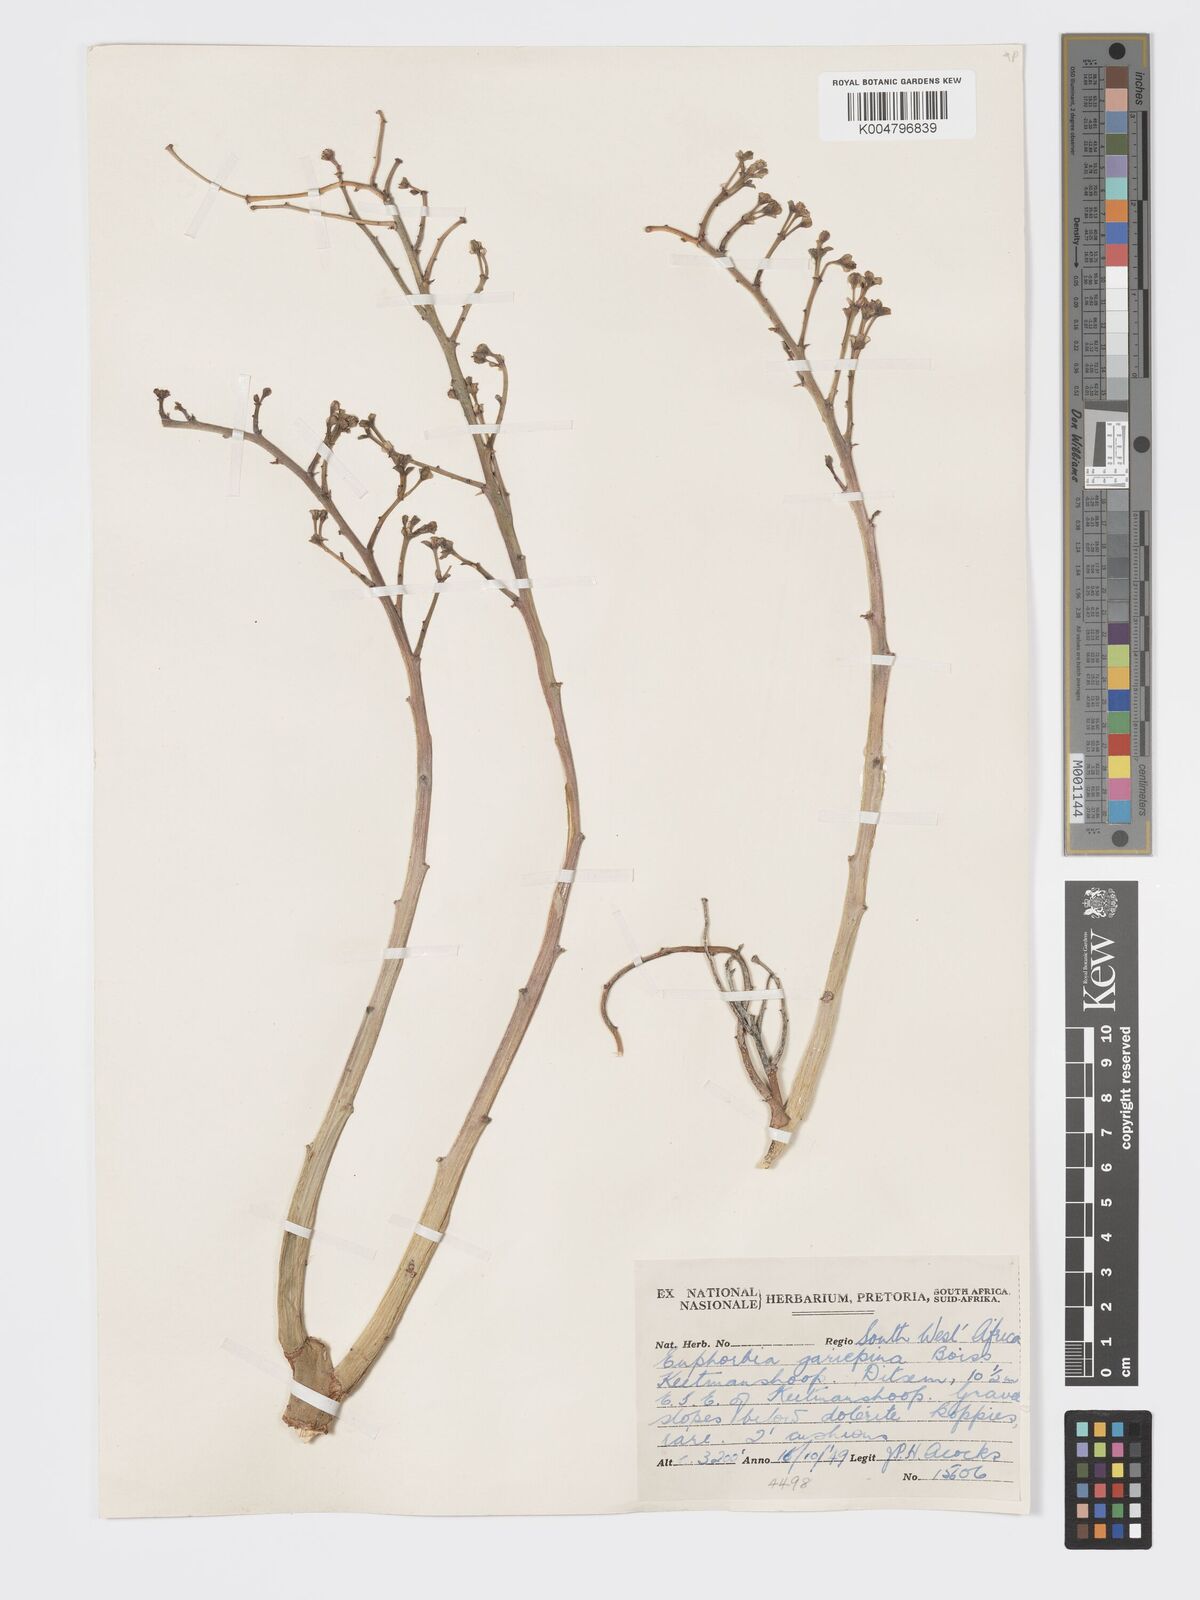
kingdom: Plantae
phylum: Tracheophyta
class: Magnoliopsida
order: Malpighiales
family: Euphorbiaceae
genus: Euphorbia
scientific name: Euphorbia gariepina
